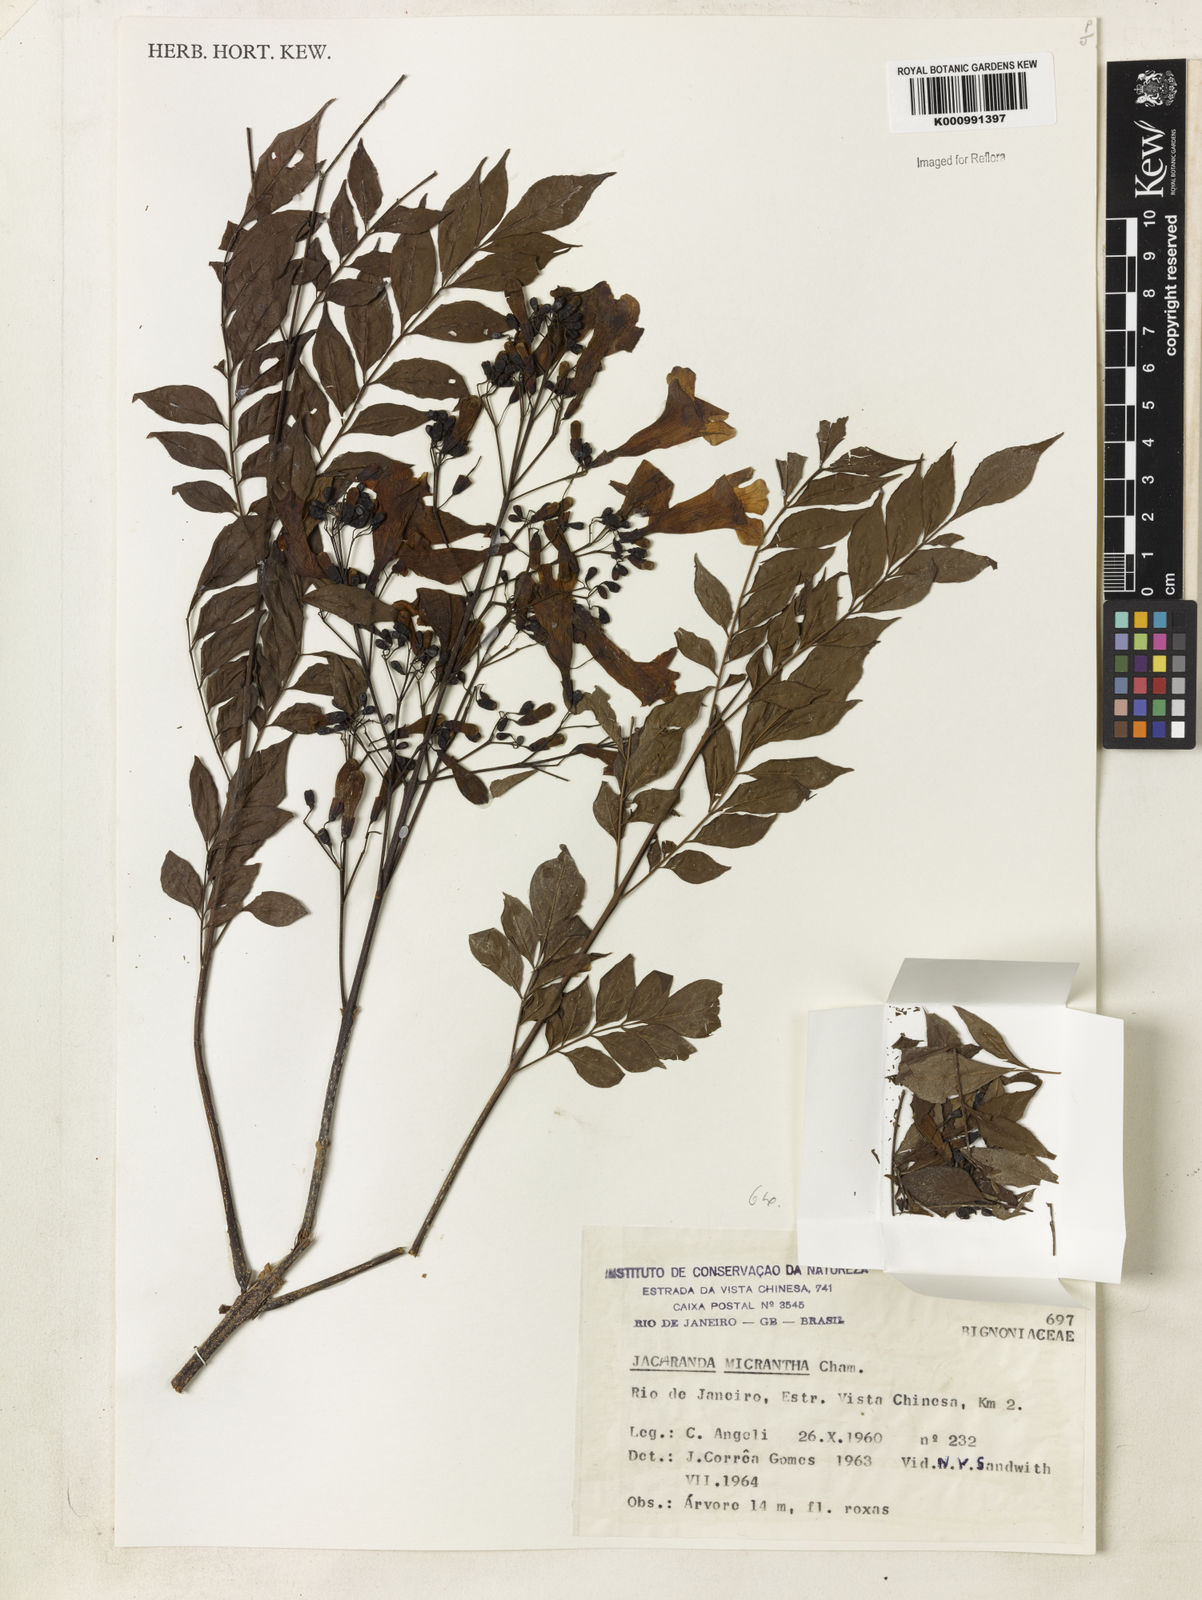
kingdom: Plantae
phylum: Tracheophyta
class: Magnoliopsida
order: Lamiales
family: Bignoniaceae
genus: Jacaranda
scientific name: Jacaranda micrantha
